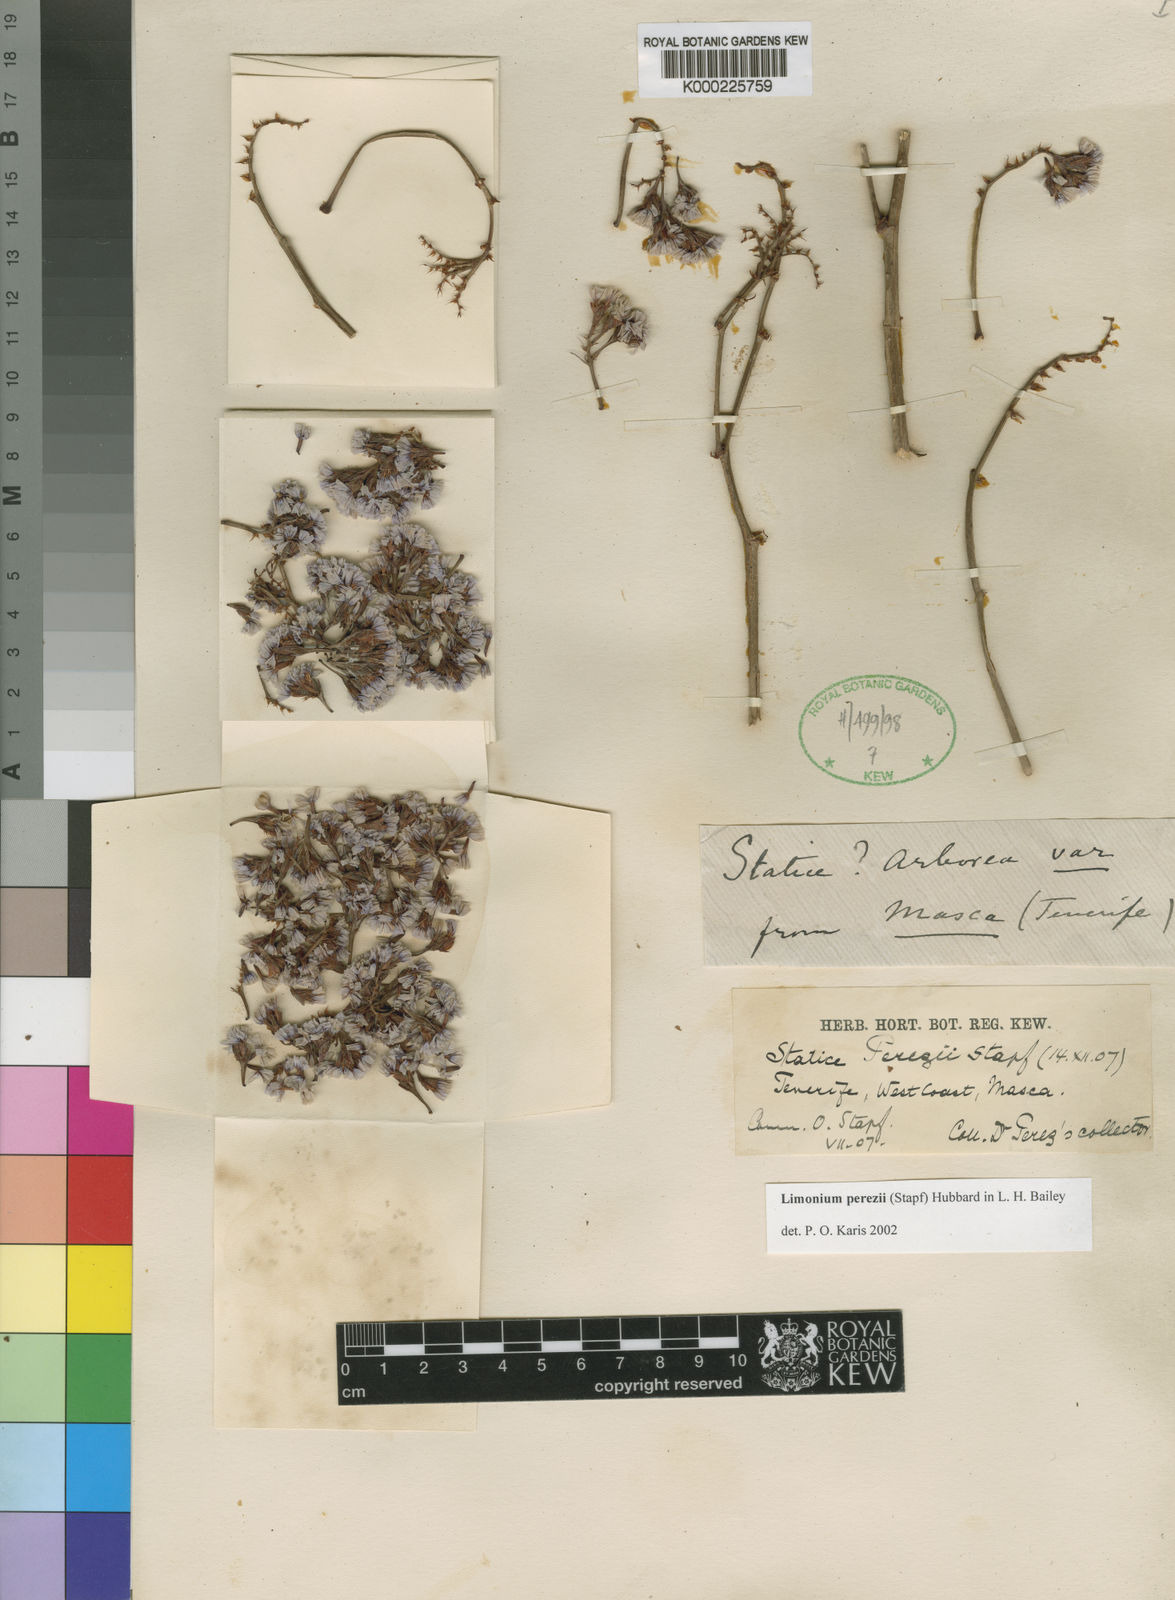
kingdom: Plantae
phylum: Tracheophyta
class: Magnoliopsida
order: Caryophyllales
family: Plumbaginaceae
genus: Limonium
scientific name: Limonium perezii
